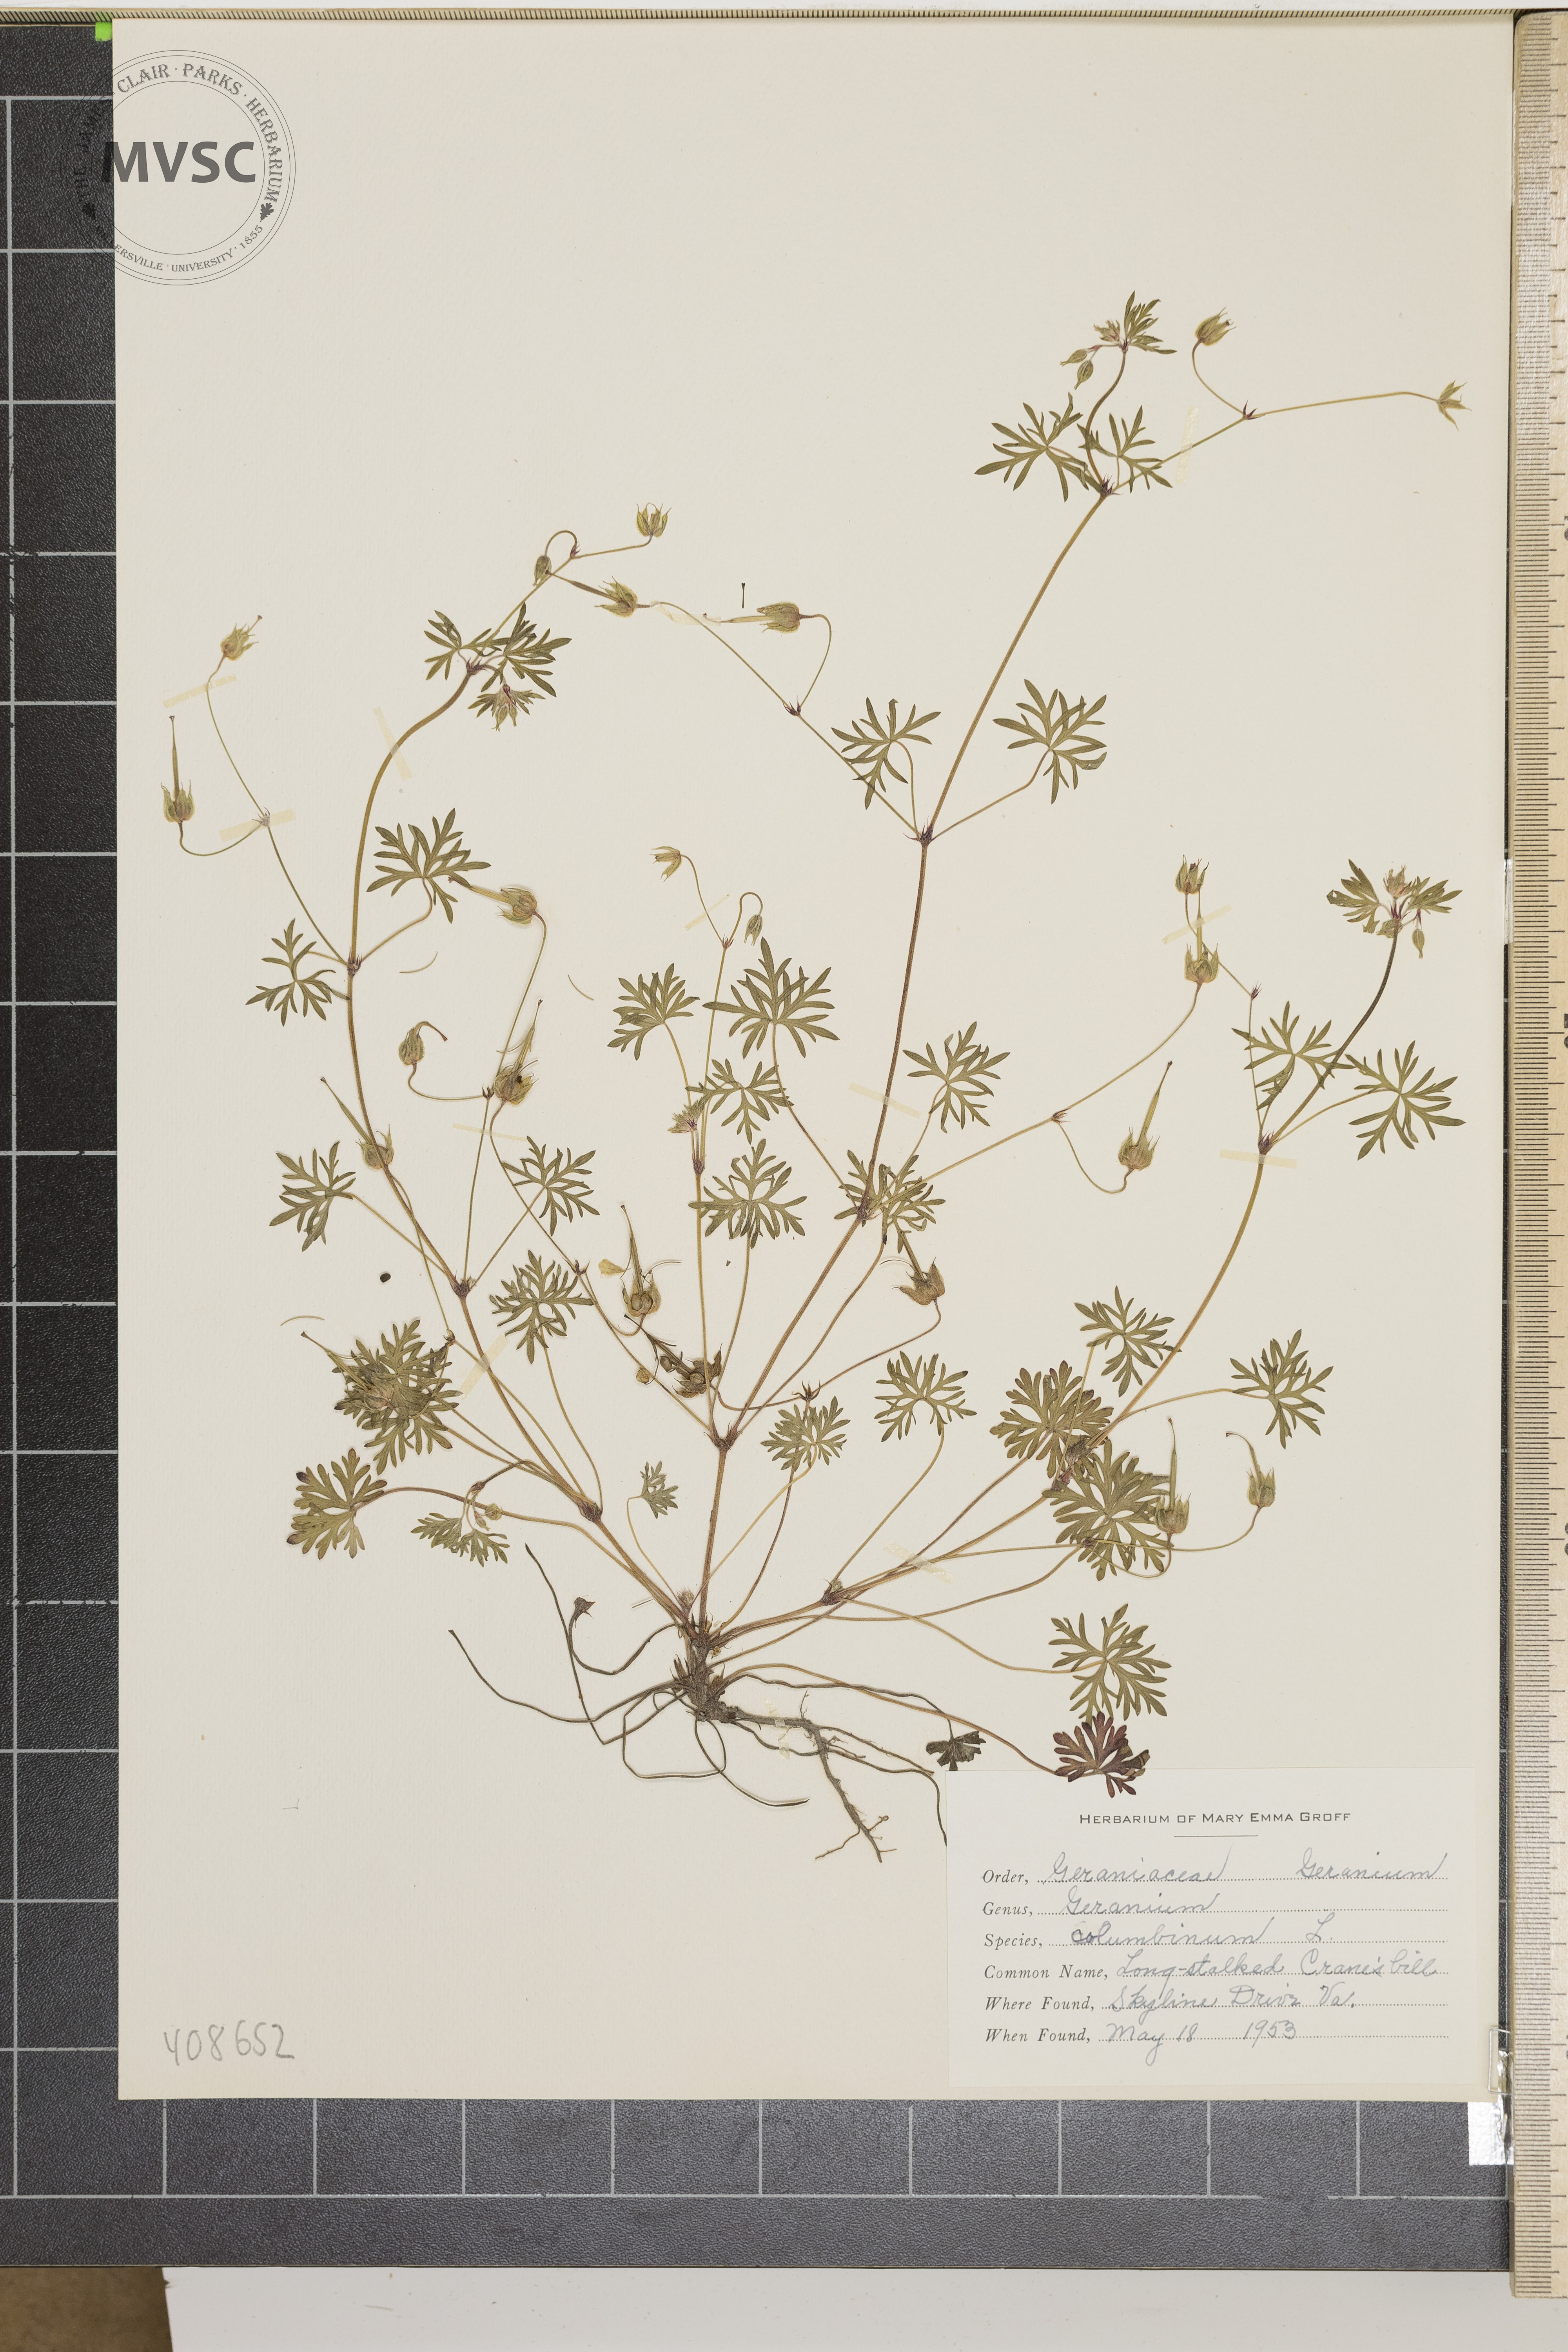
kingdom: Plantae
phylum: Tracheophyta
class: Magnoliopsida
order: Geraniales
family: Geraniaceae
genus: Geranium
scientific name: Geranium columbinum
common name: Long-stalked crane's-bill
